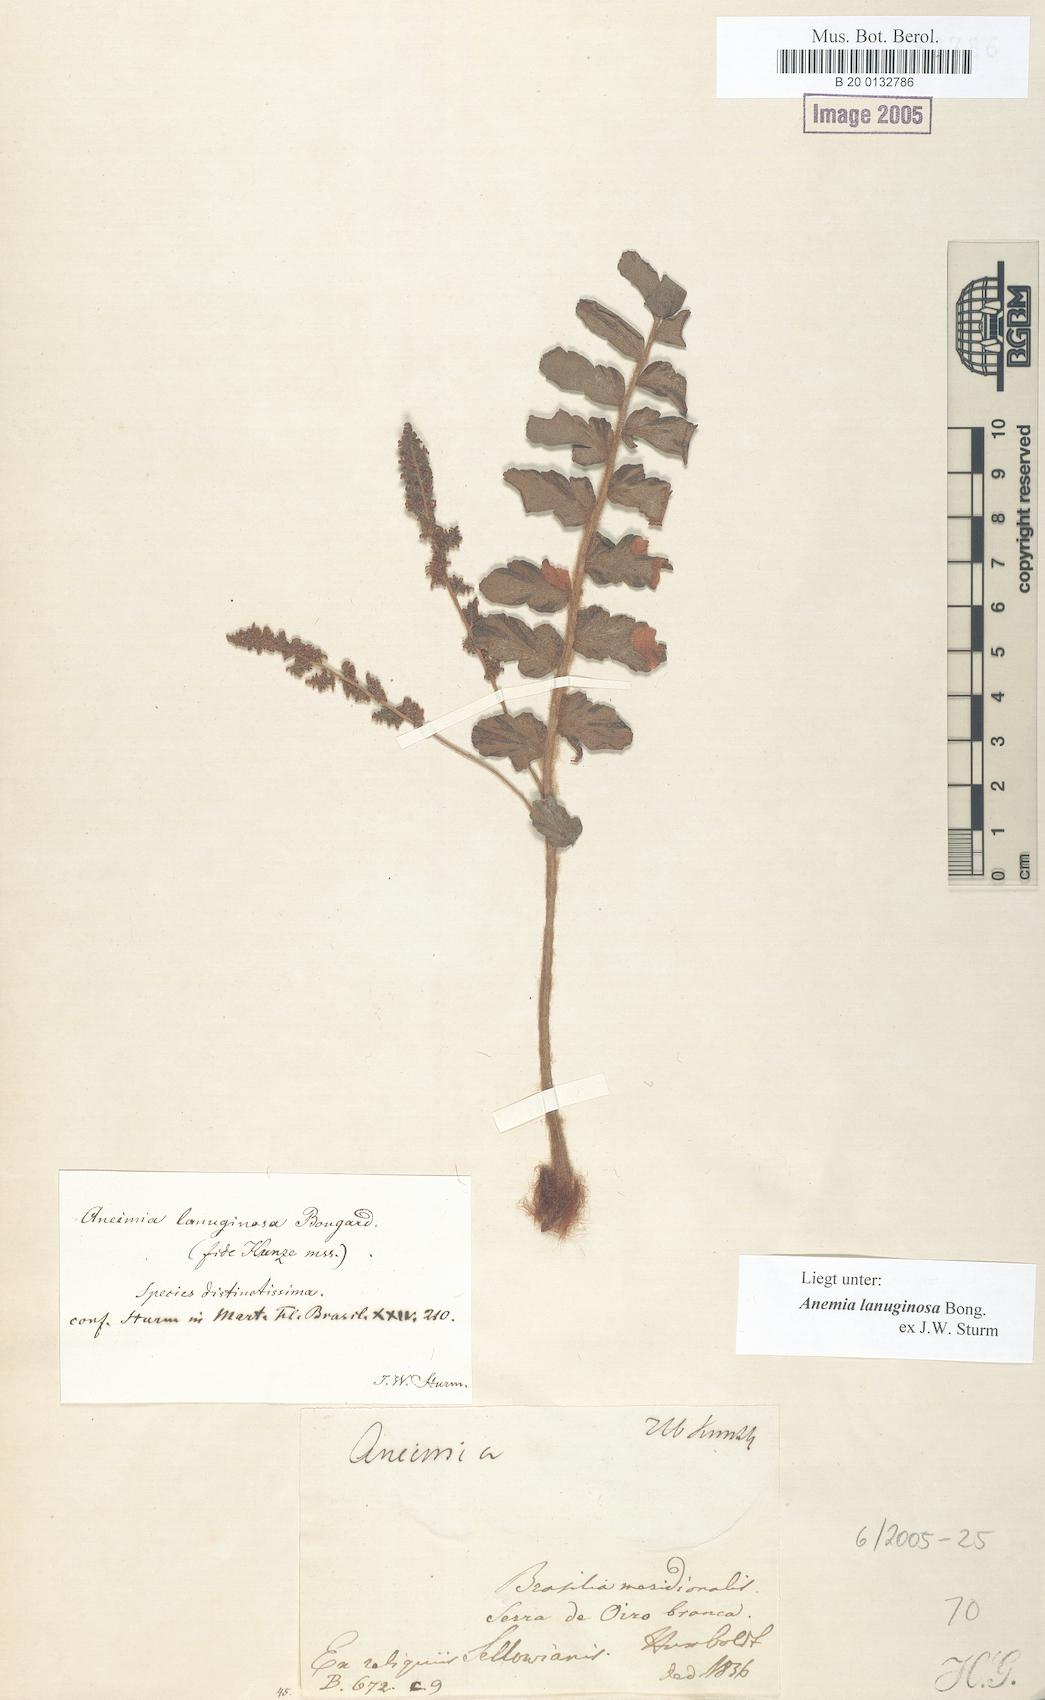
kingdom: Plantae
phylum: Tracheophyta
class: Polypodiopsida
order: Schizaeales
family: Anemiaceae
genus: Anemia
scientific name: Anemia lanuginosa
